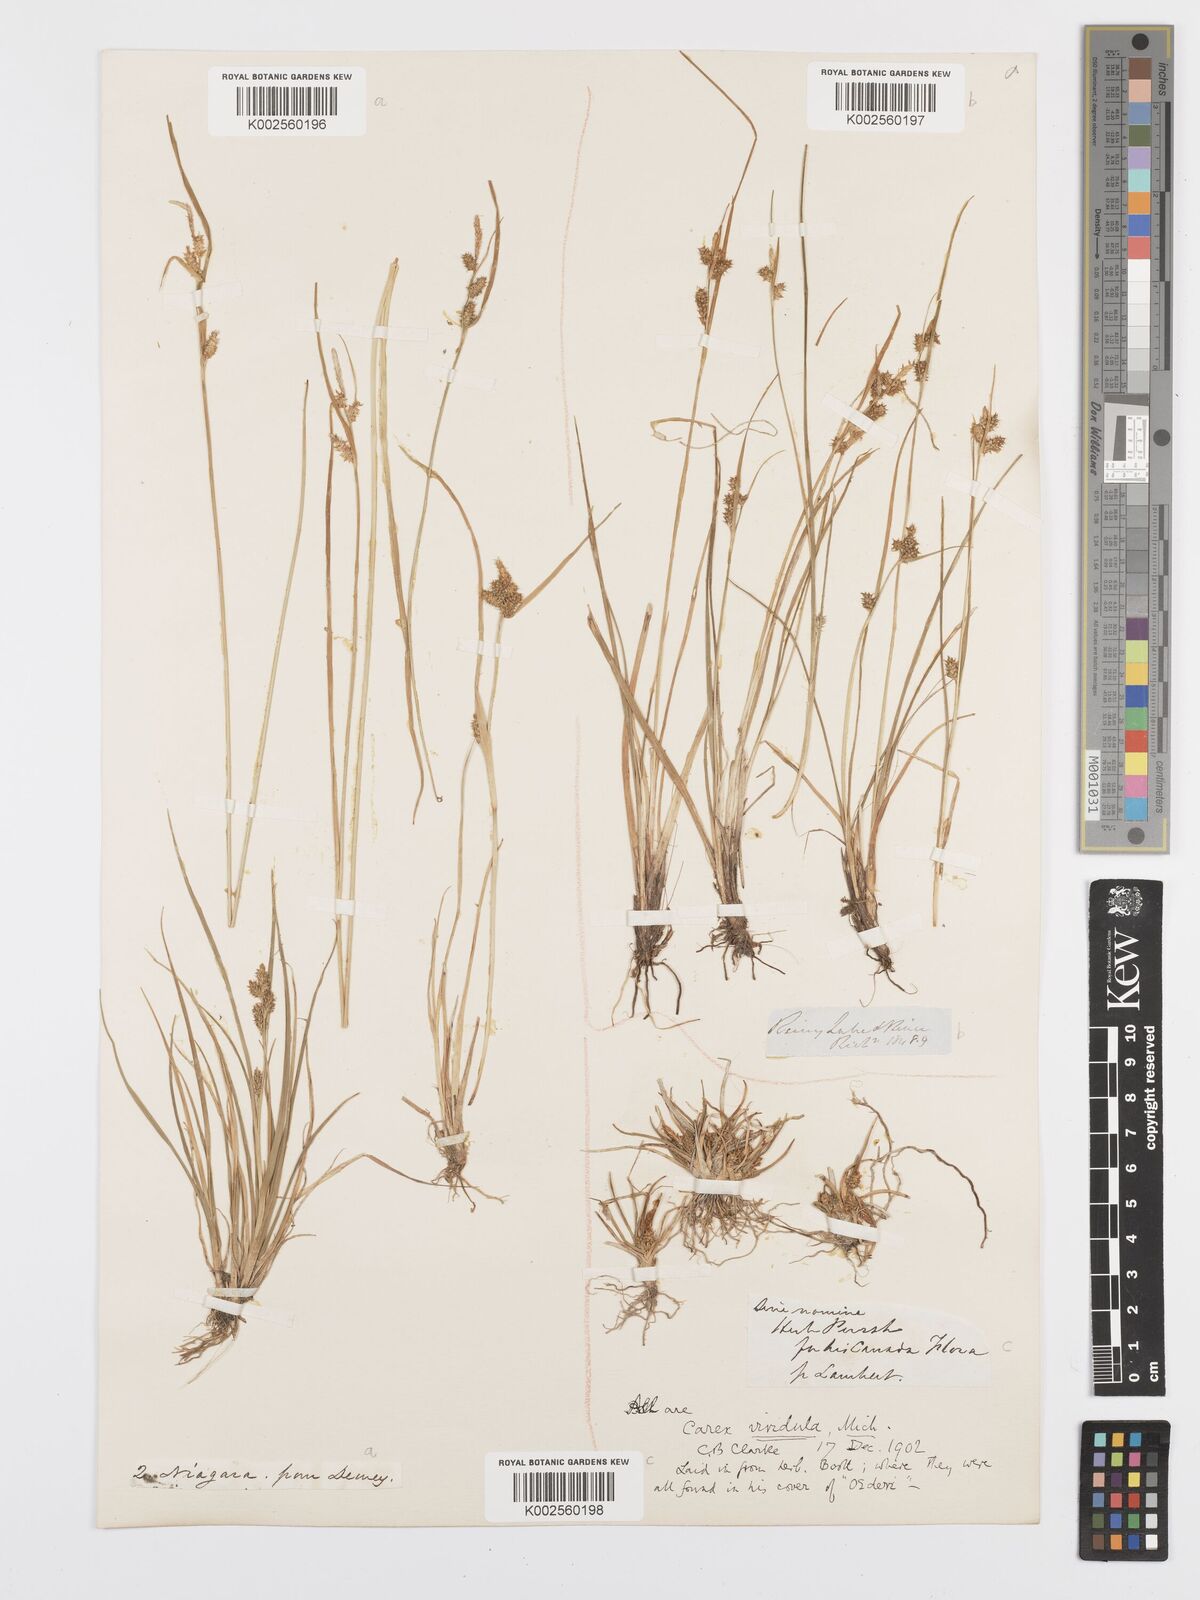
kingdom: Plantae
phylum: Tracheophyta
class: Liliopsida
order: Poales
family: Cyperaceae
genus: Carex
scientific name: Carex oederi
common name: Common & small-fruited yellow-sedge
